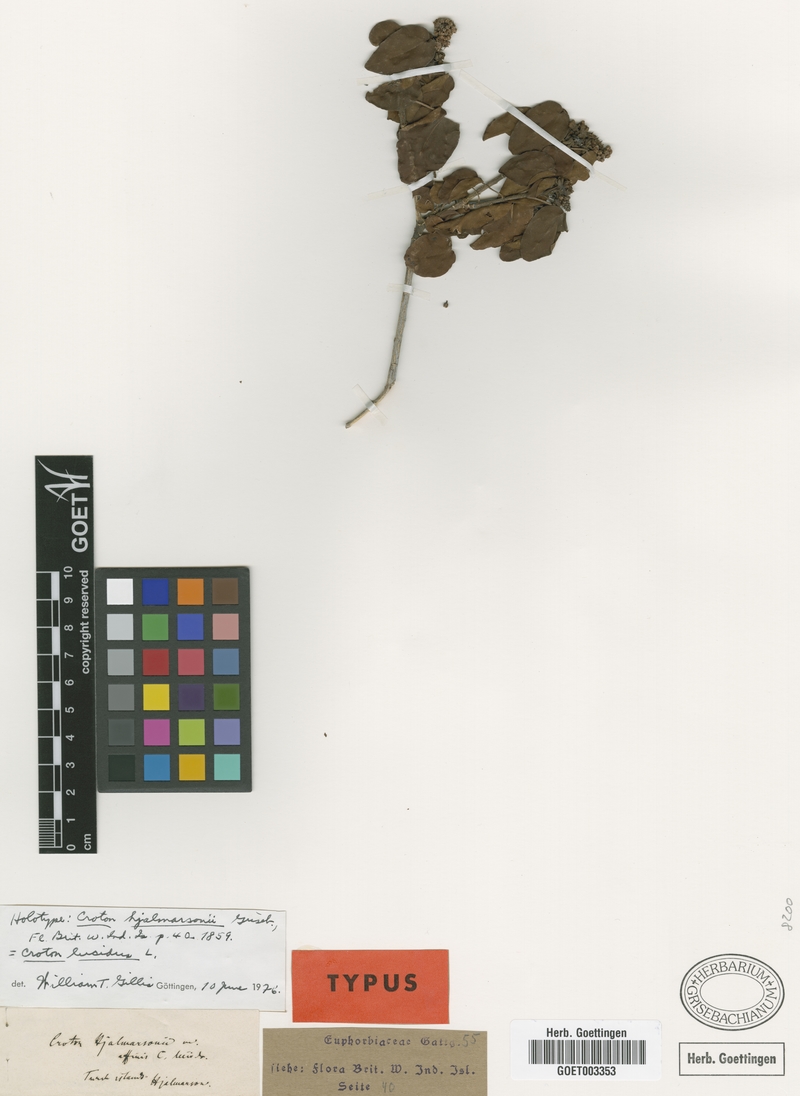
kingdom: Plantae
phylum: Tracheophyta
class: Magnoliopsida
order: Malpighiales
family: Euphorbiaceae
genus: Croton
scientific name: Croton lucidus
